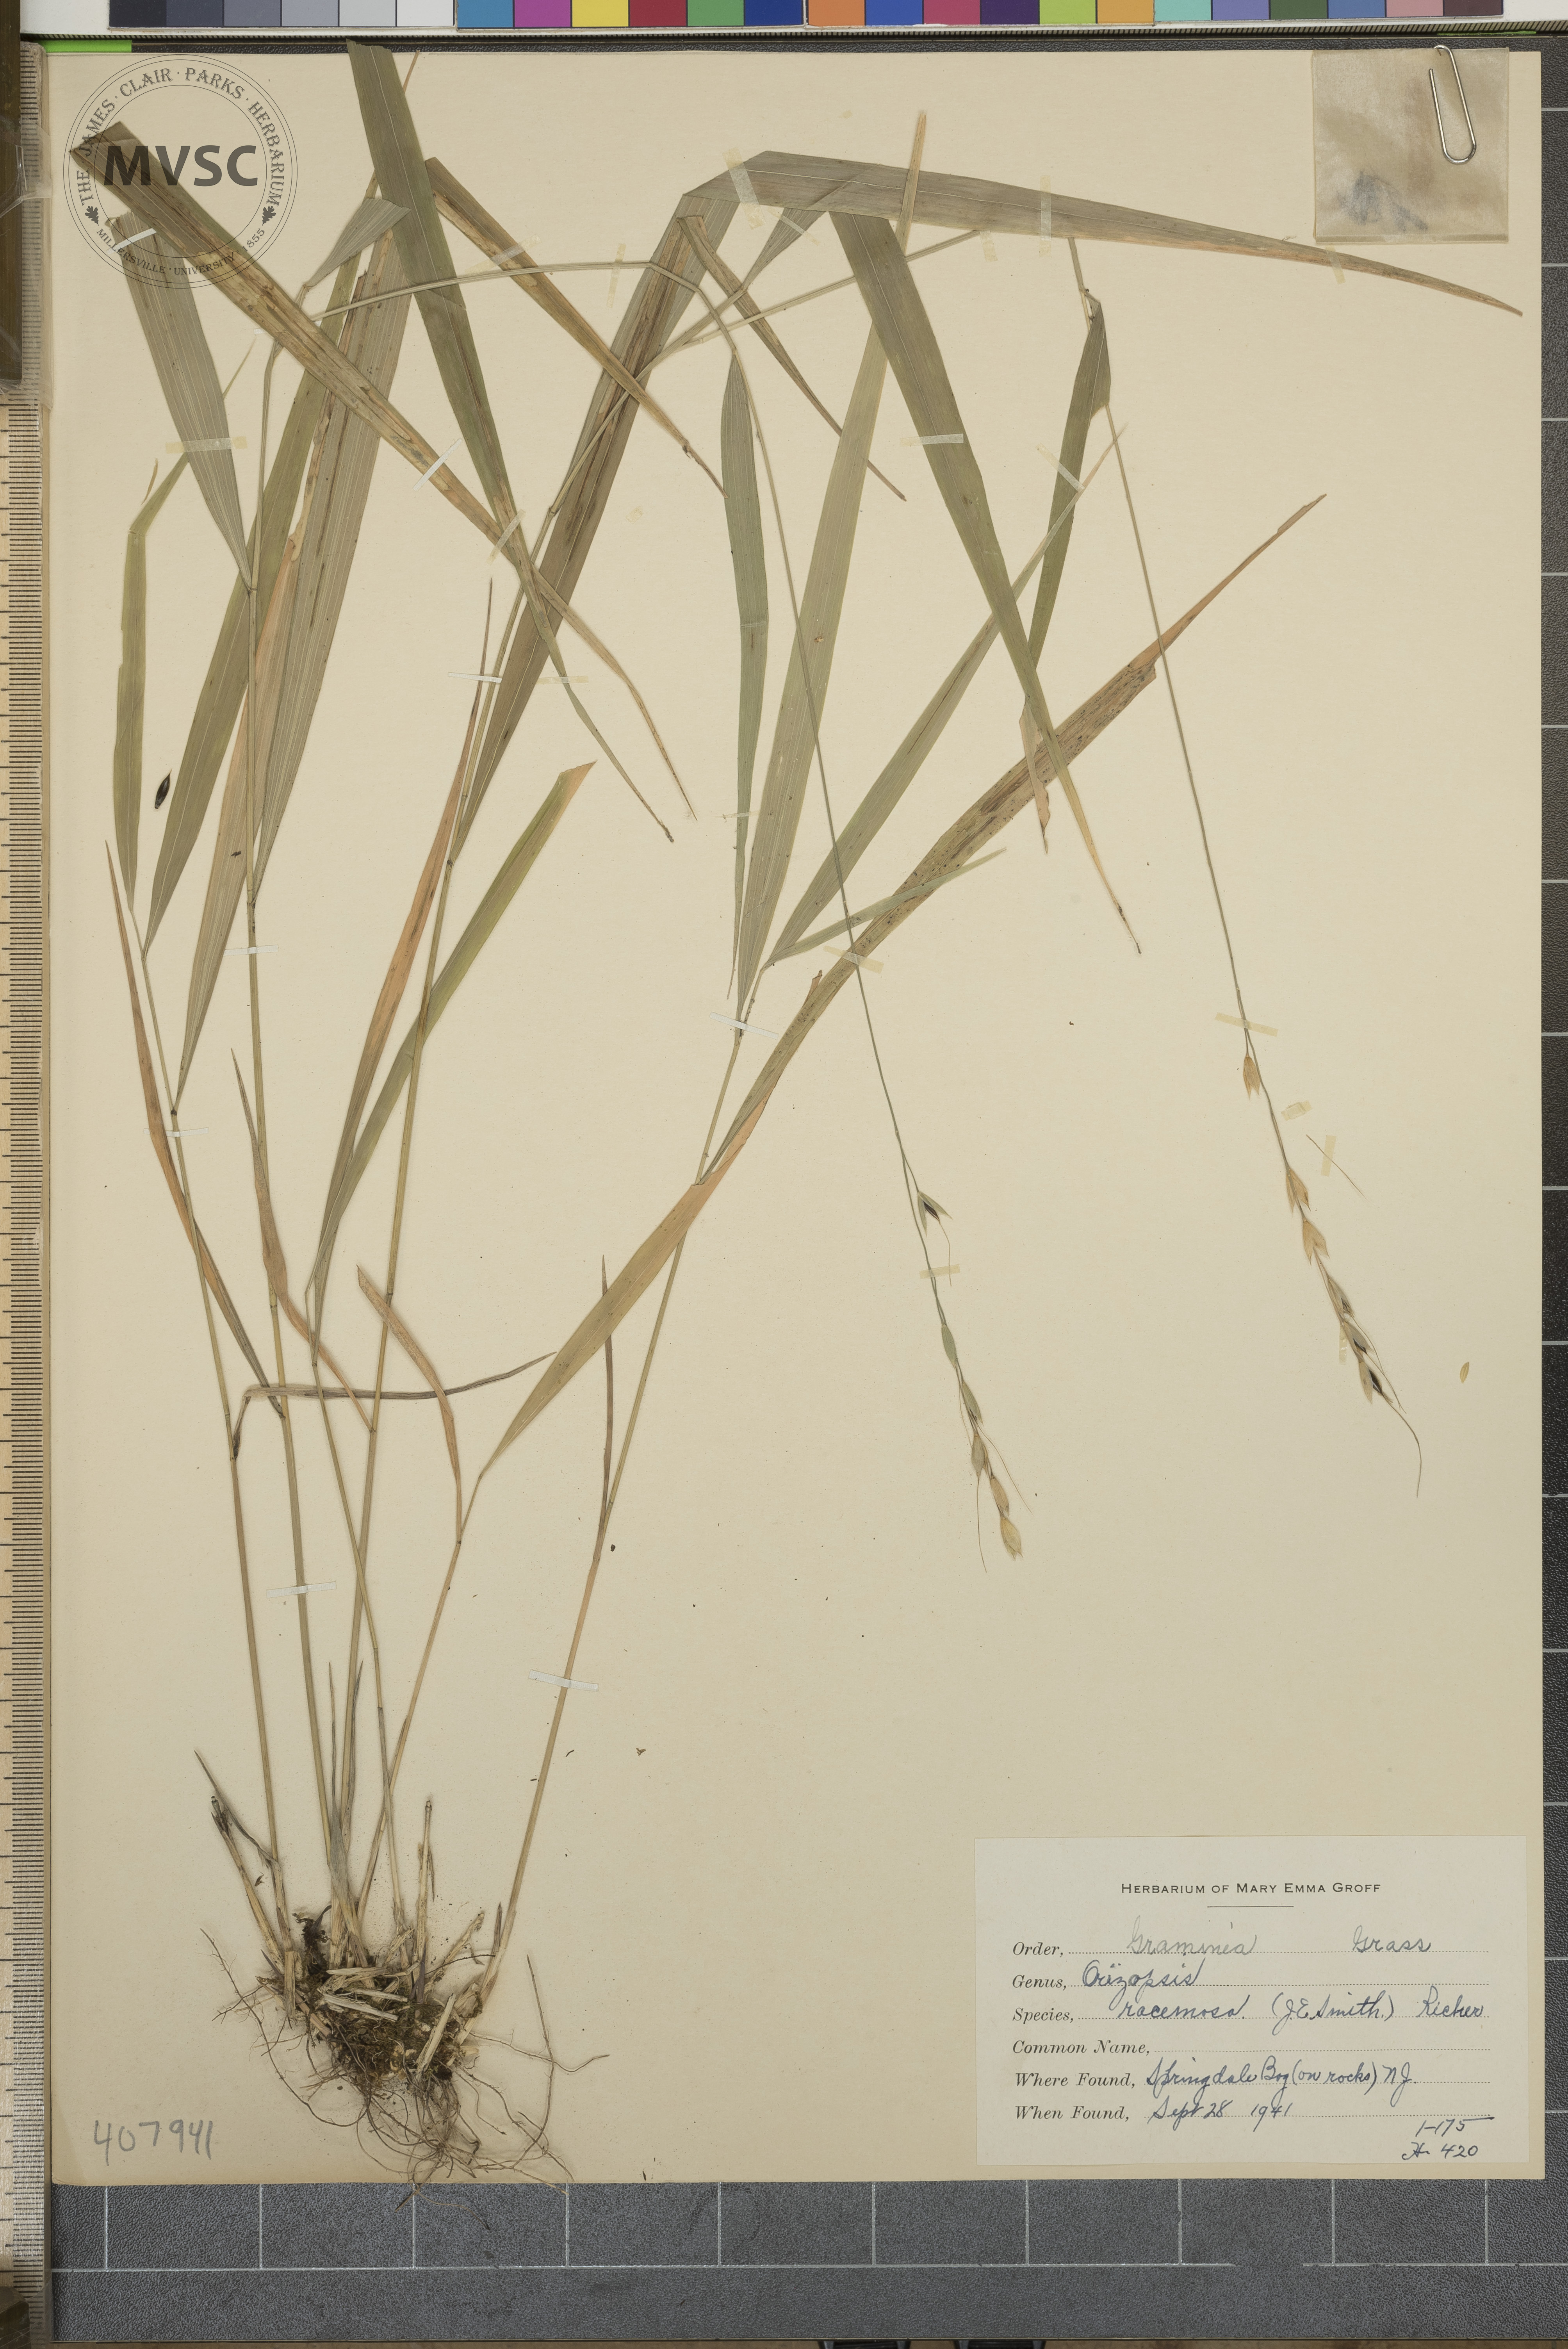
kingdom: Plantae
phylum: Tracheophyta
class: Liliopsida
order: Poales
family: Poaceae
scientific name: Poaceae
